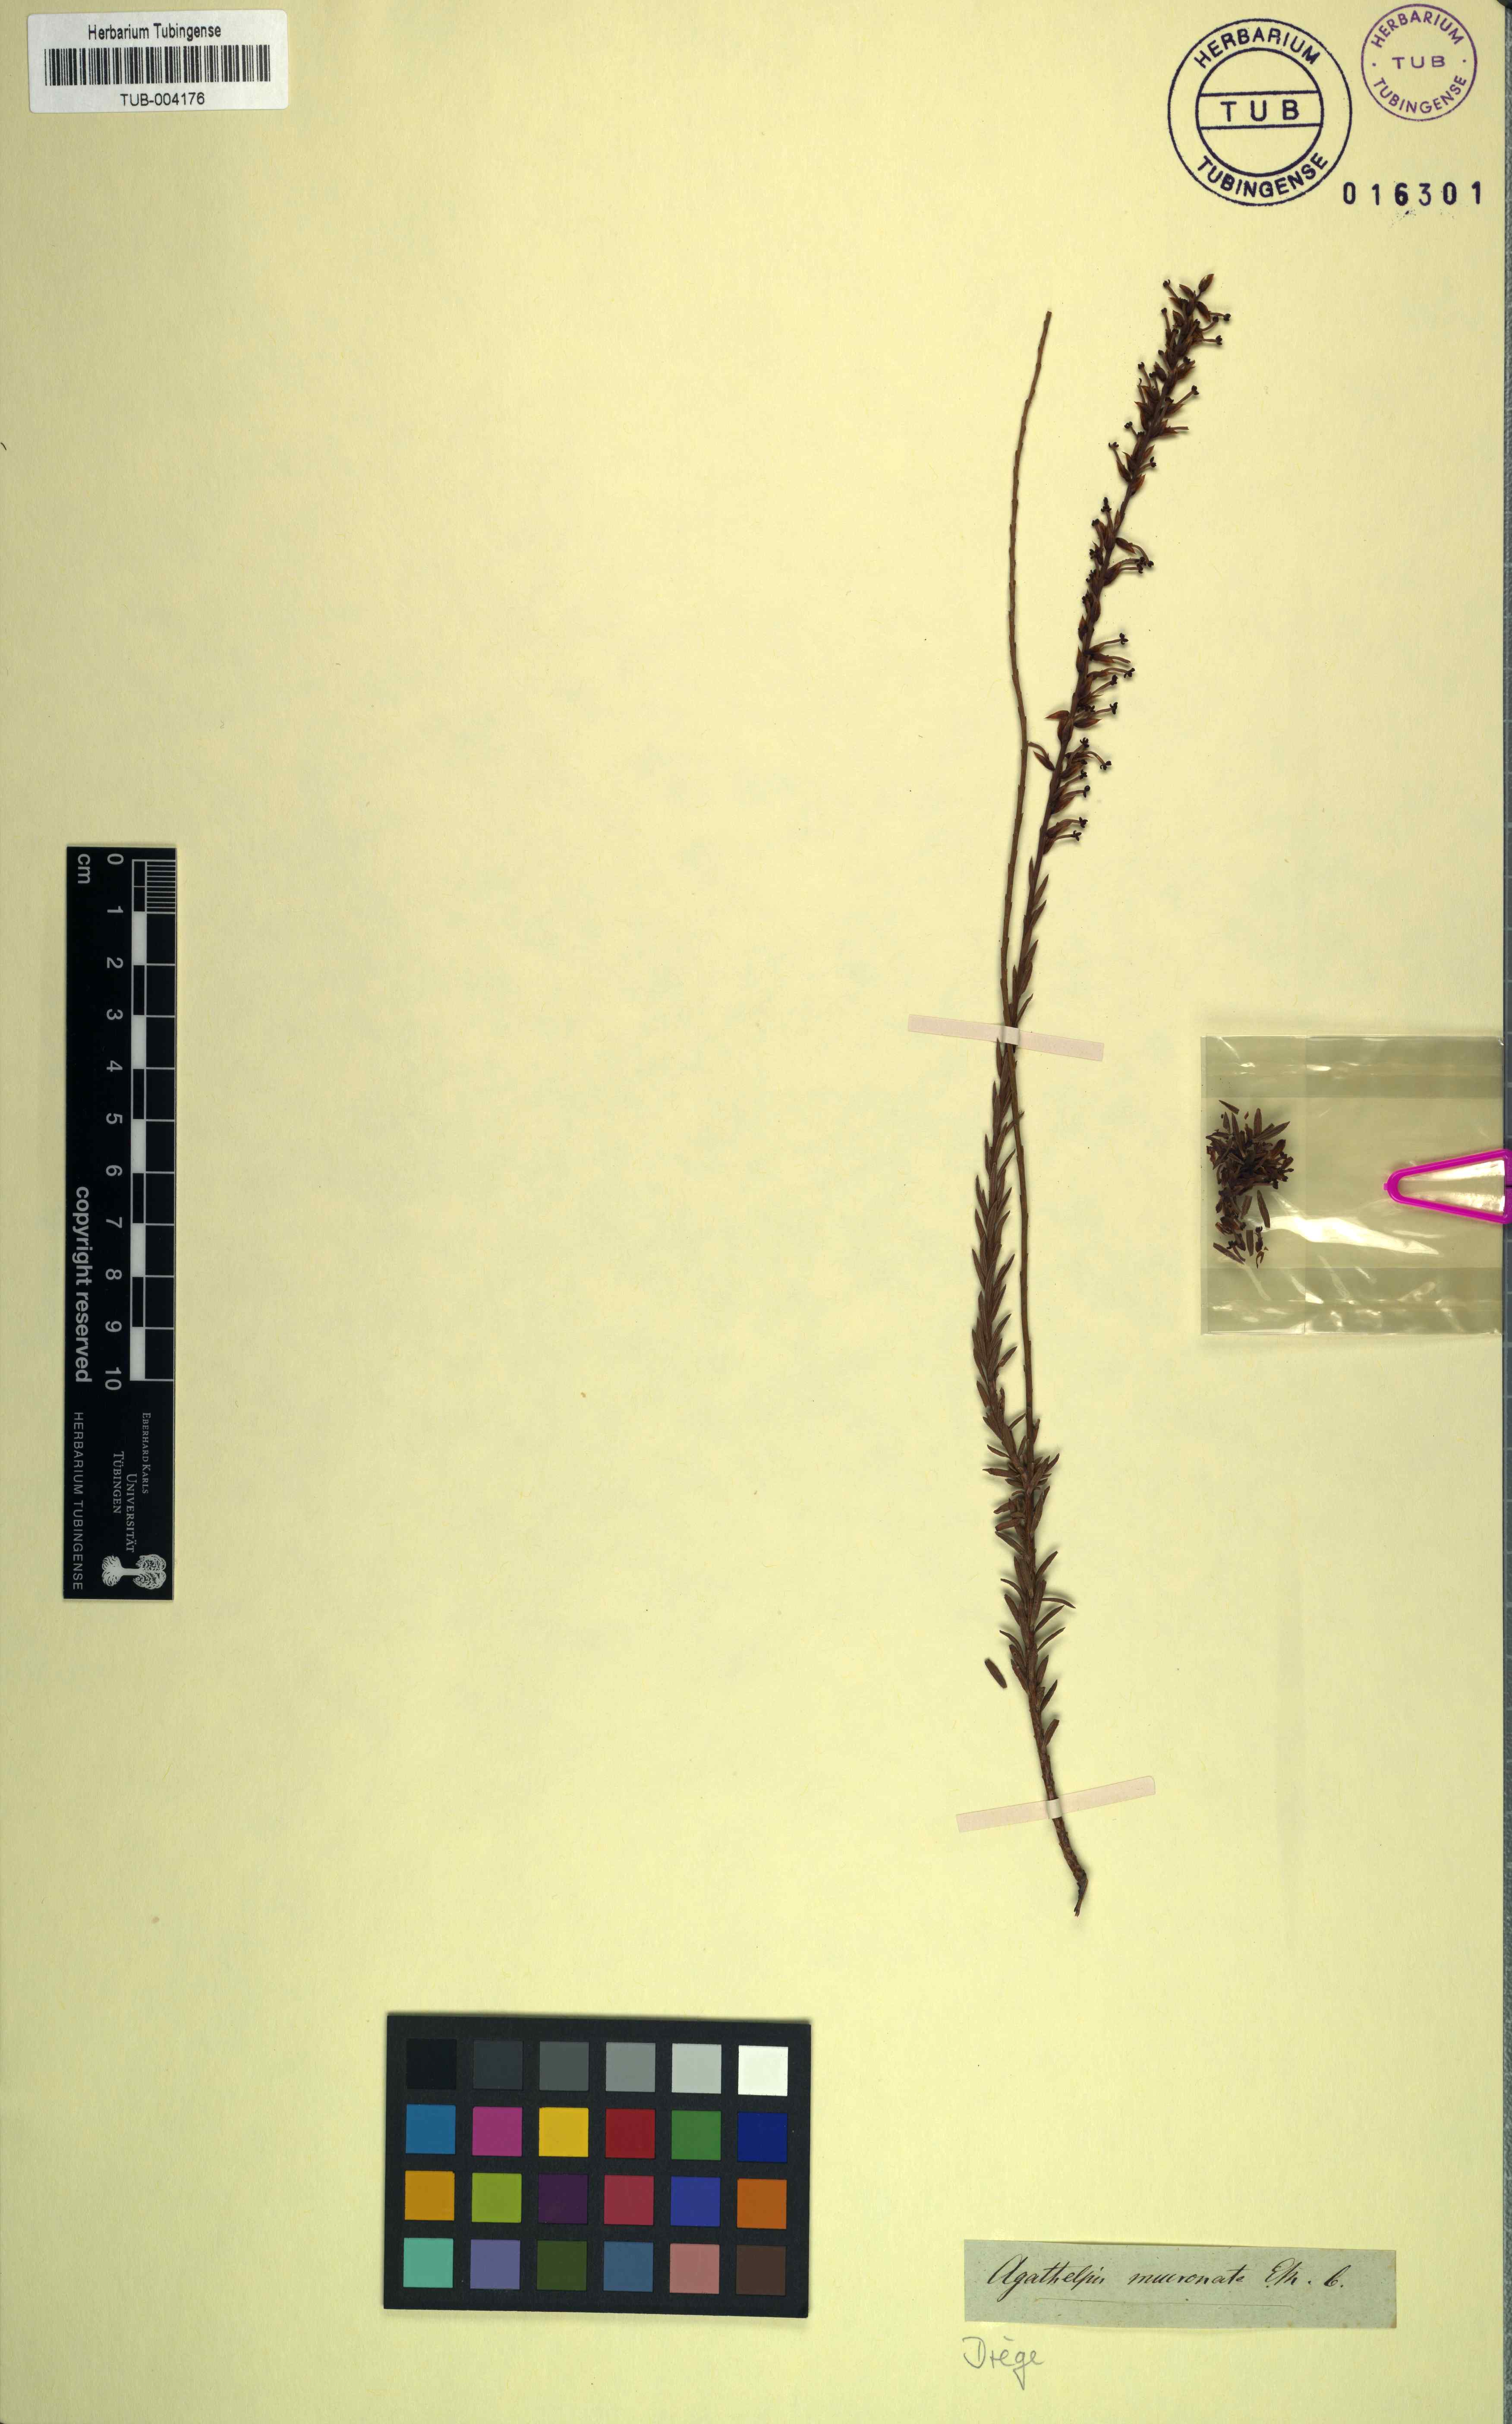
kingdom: Plantae
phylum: Tracheophyta
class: Magnoliopsida
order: Lamiales
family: Scrophulariaceae
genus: Microdon
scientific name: Microdon dubius
